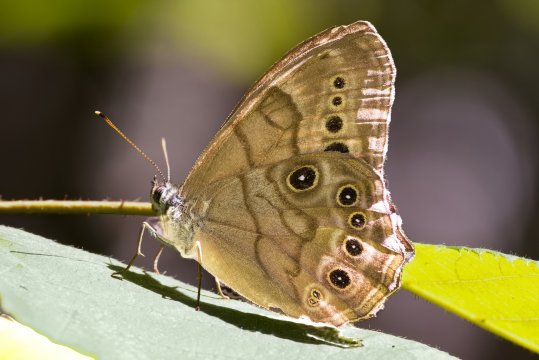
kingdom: Animalia
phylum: Arthropoda
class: Insecta
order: Lepidoptera
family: Nymphalidae
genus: Lethe
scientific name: Lethe anthedon
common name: Northern Pearly-Eye
